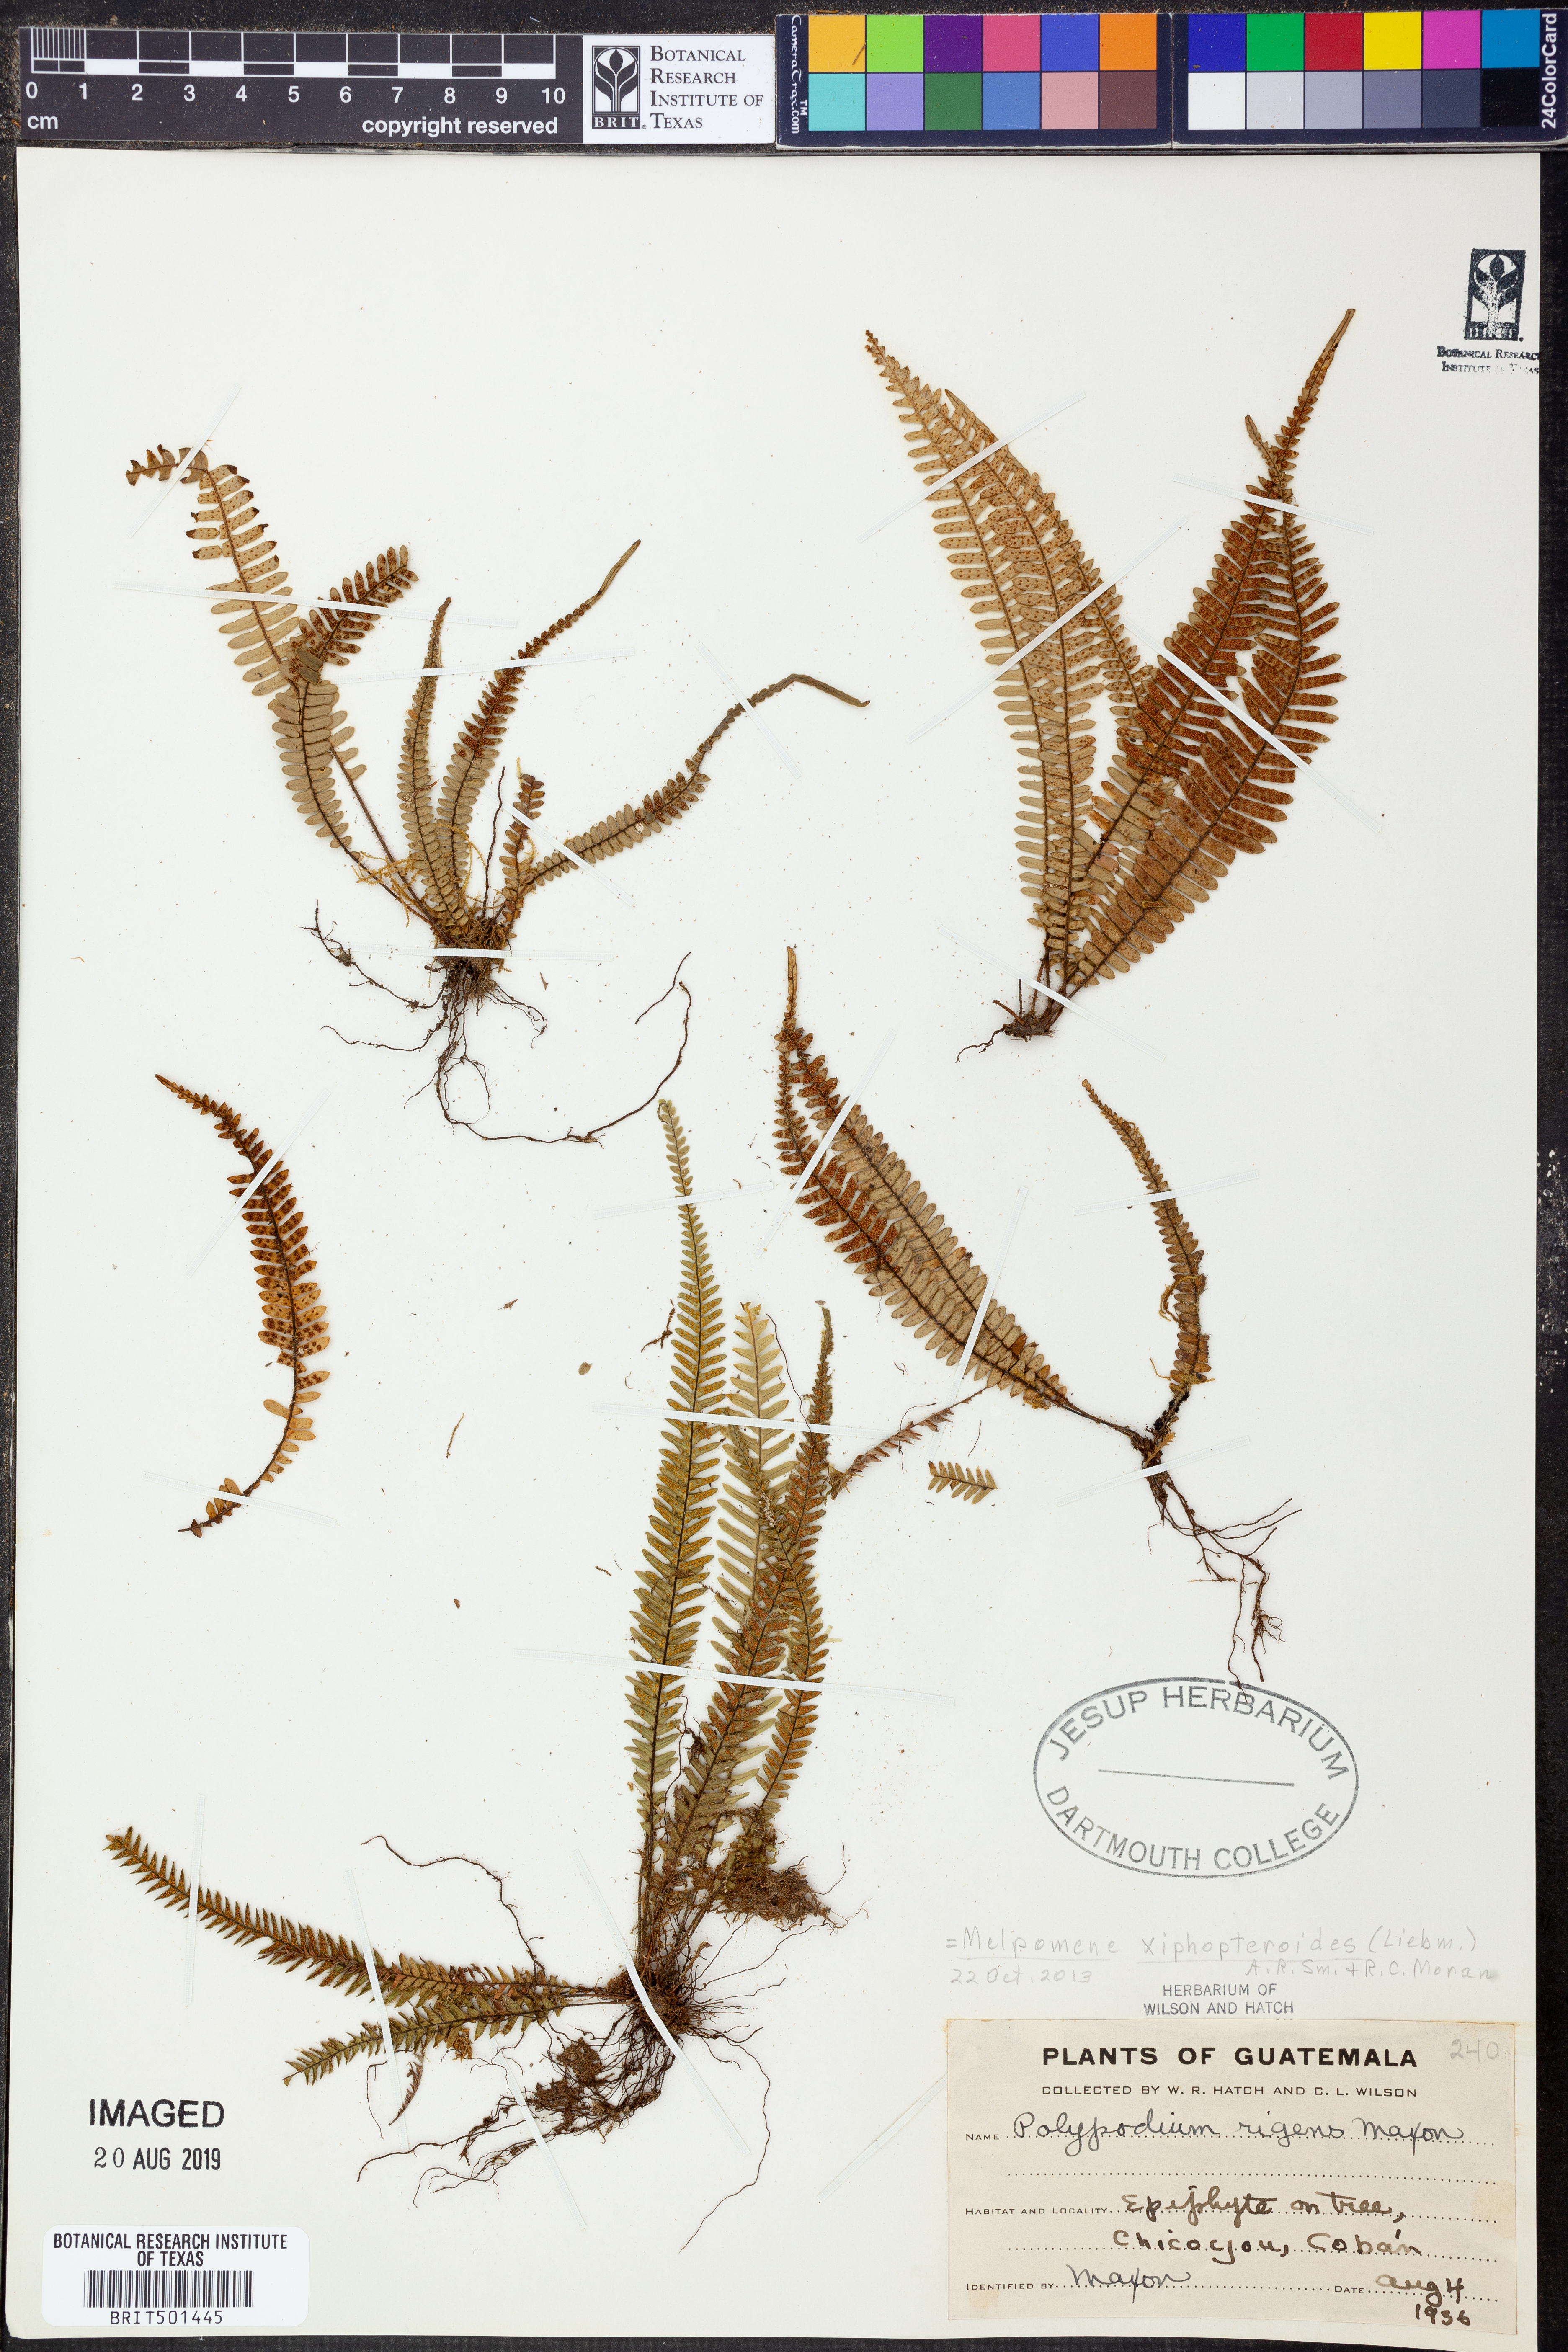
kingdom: Plantae
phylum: Tracheophyta
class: Polypodiopsida
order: Polypodiales
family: Polypodiaceae
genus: Melpomene
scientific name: Melpomene xiphopteroides
